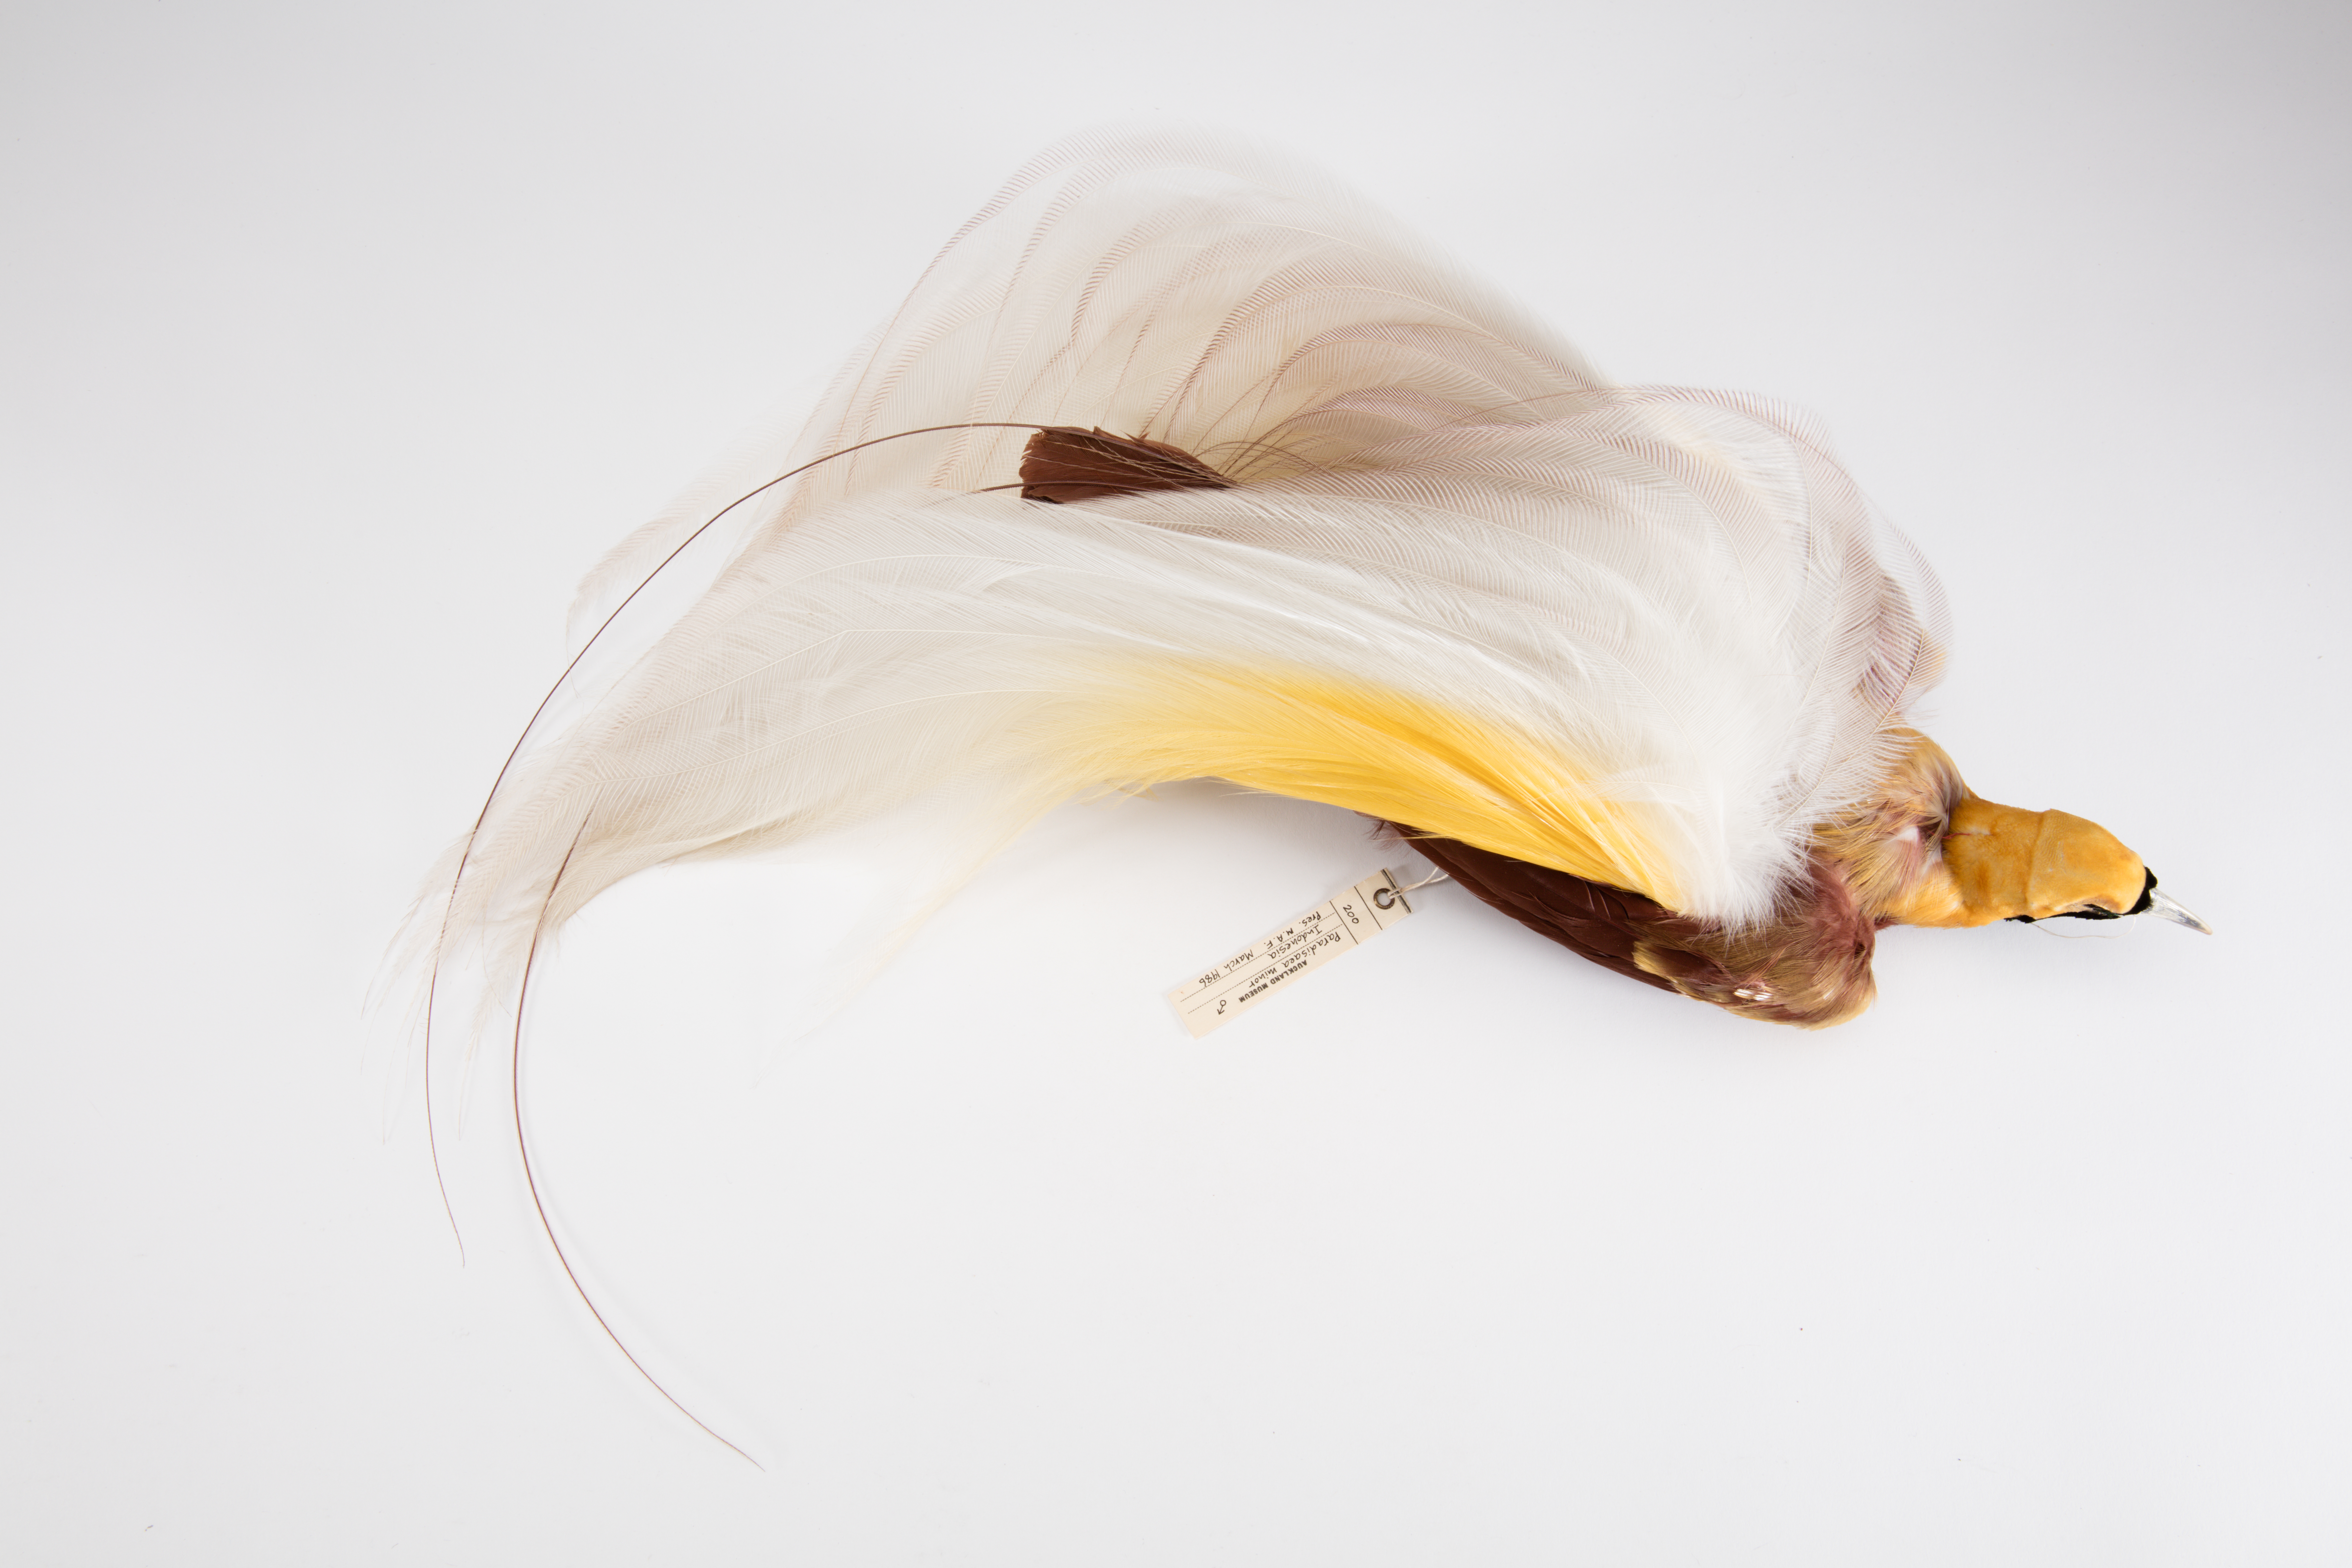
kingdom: Animalia
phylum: Chordata
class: Aves
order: Passeriformes
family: Paradisaeidae
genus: Paradisaea
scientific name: Paradisaea minor
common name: Lesser bird-of-paradise
